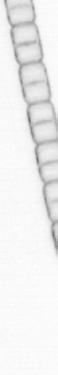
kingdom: Chromista
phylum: Ochrophyta
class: Bacillariophyceae
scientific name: Bacillariophyceae
